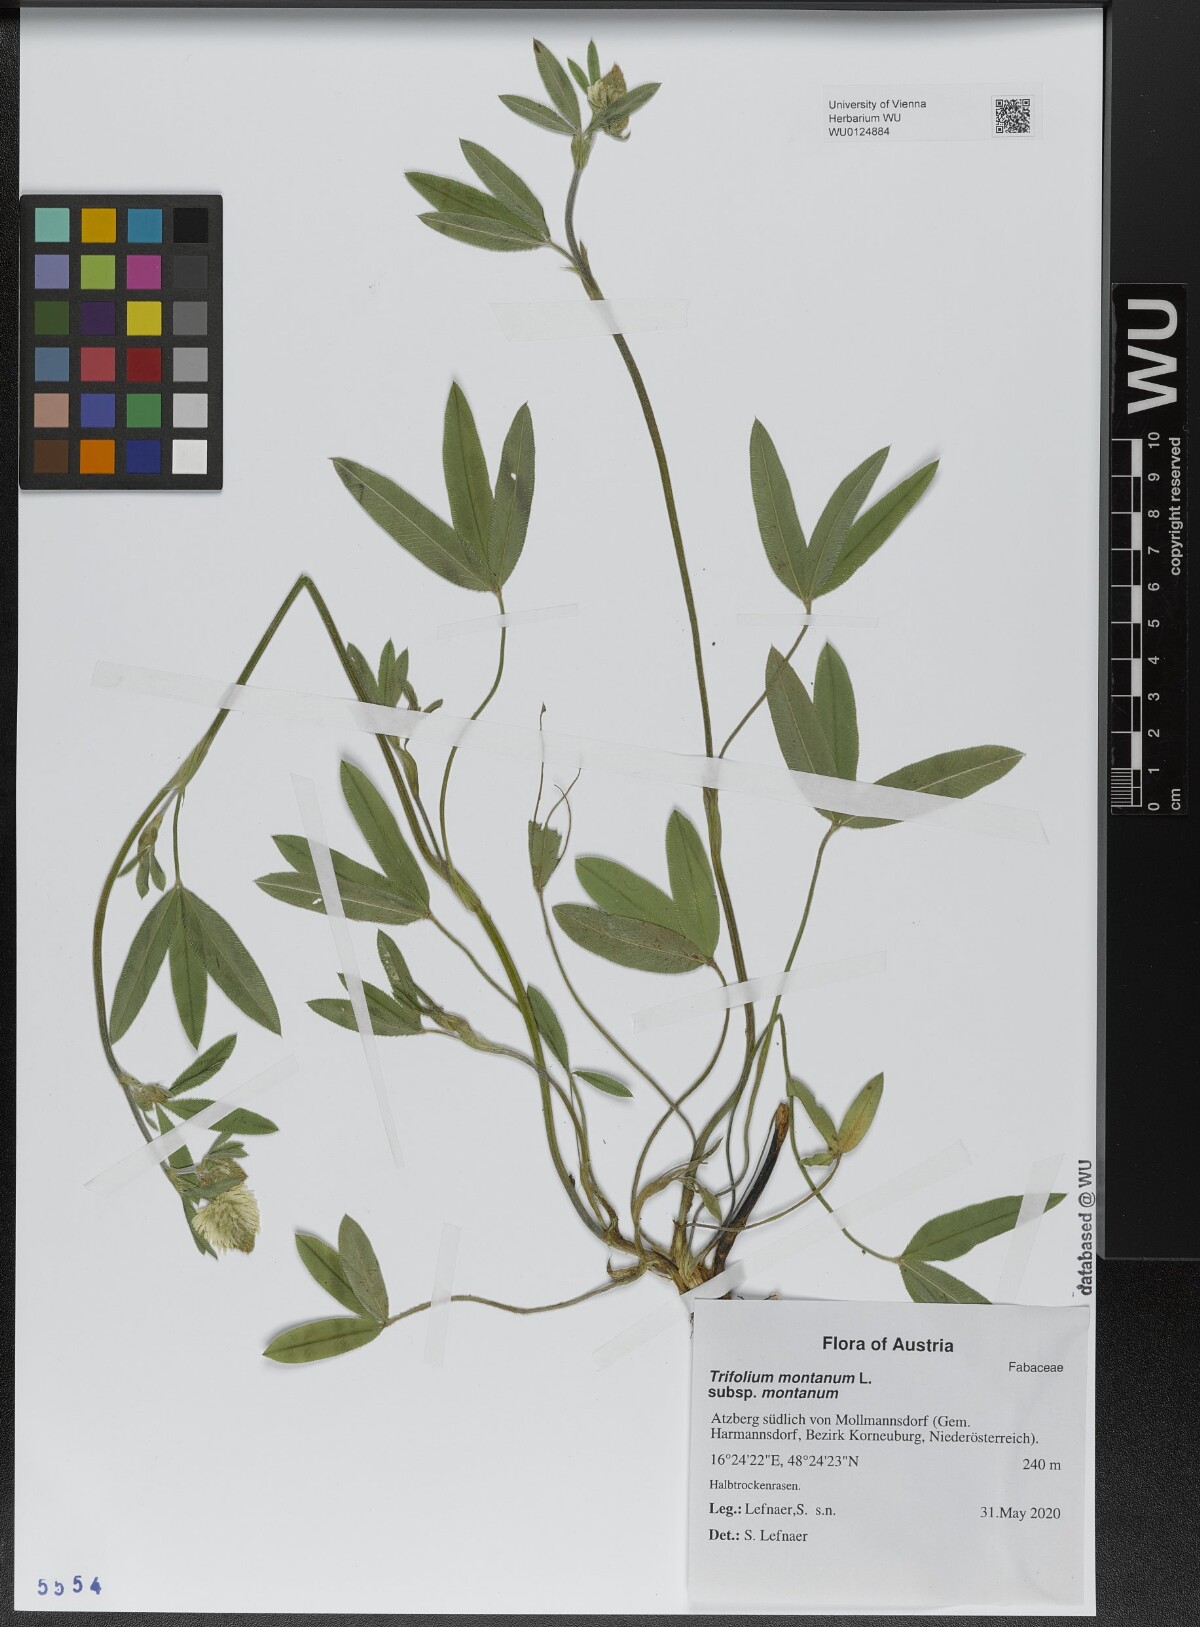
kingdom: Plantae
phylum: Tracheophyta
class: Magnoliopsida
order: Fabales
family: Fabaceae
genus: Trifolium
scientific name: Trifolium montanum
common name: Mountain clover
